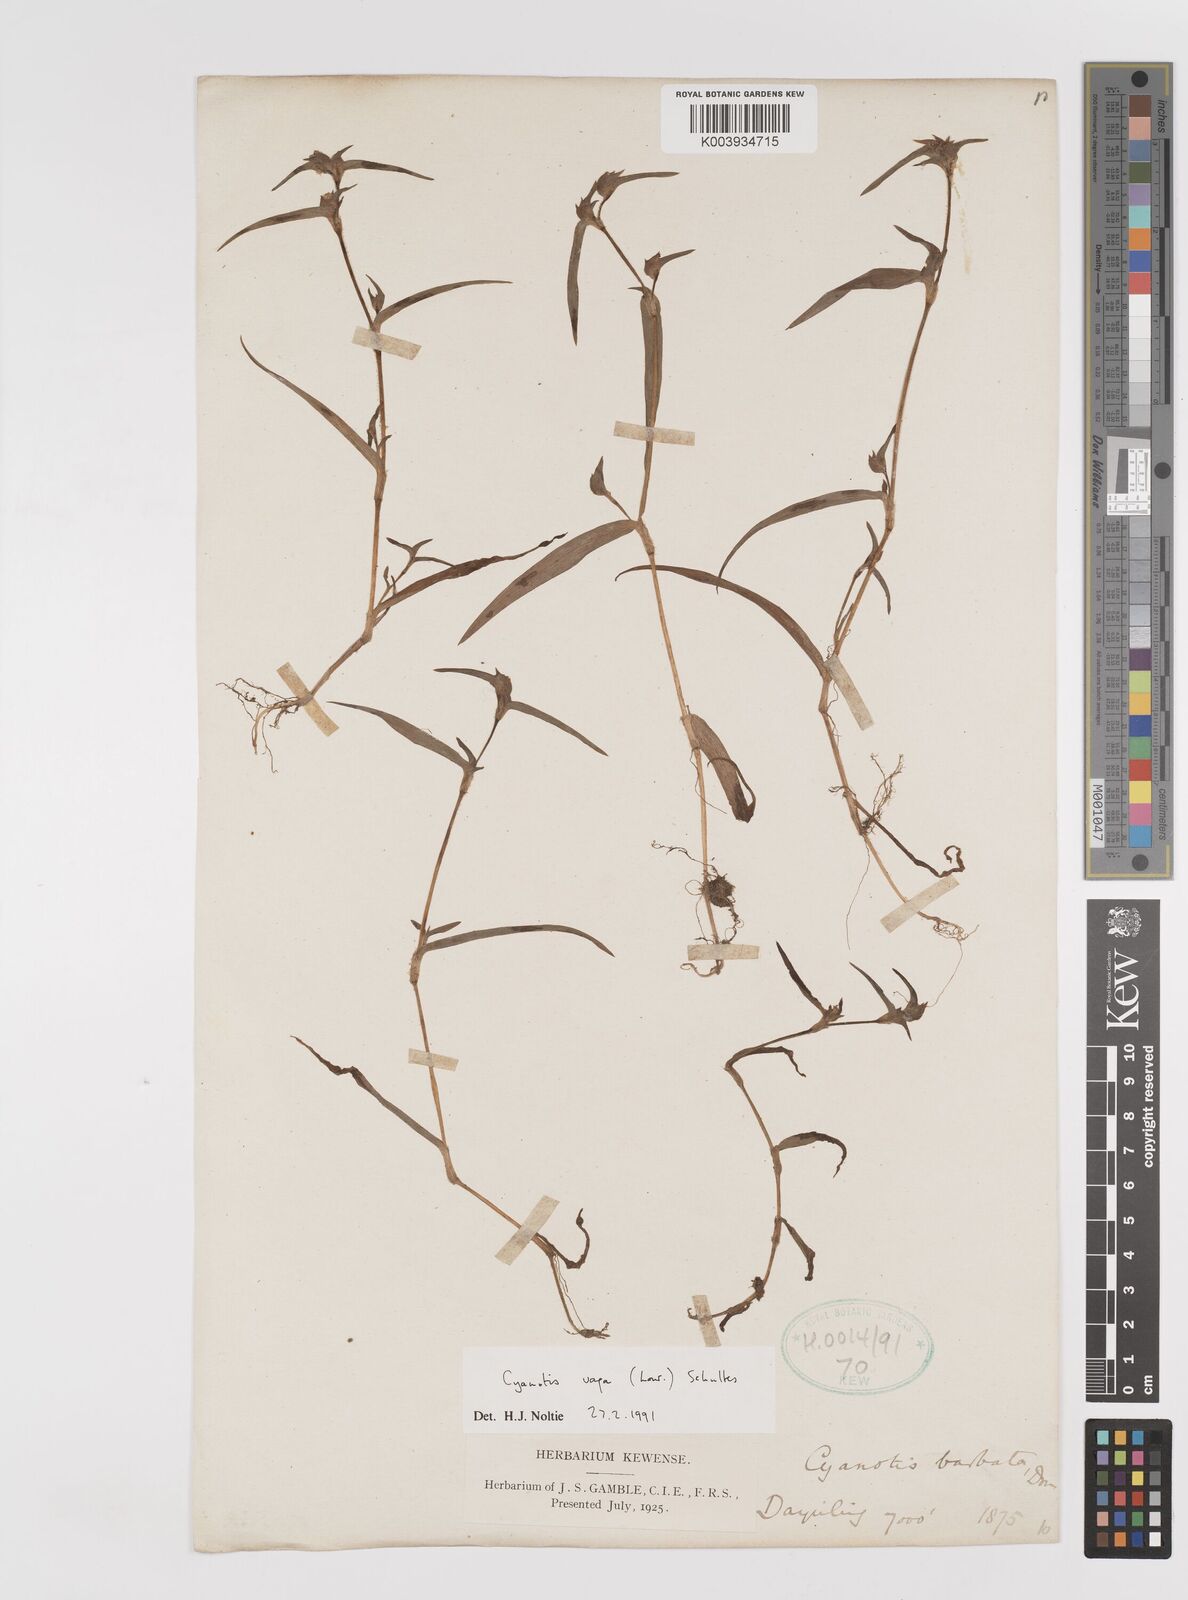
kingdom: Plantae
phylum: Tracheophyta
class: Liliopsida
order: Commelinales
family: Commelinaceae
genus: Cyanotis
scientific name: Cyanotis vaga
